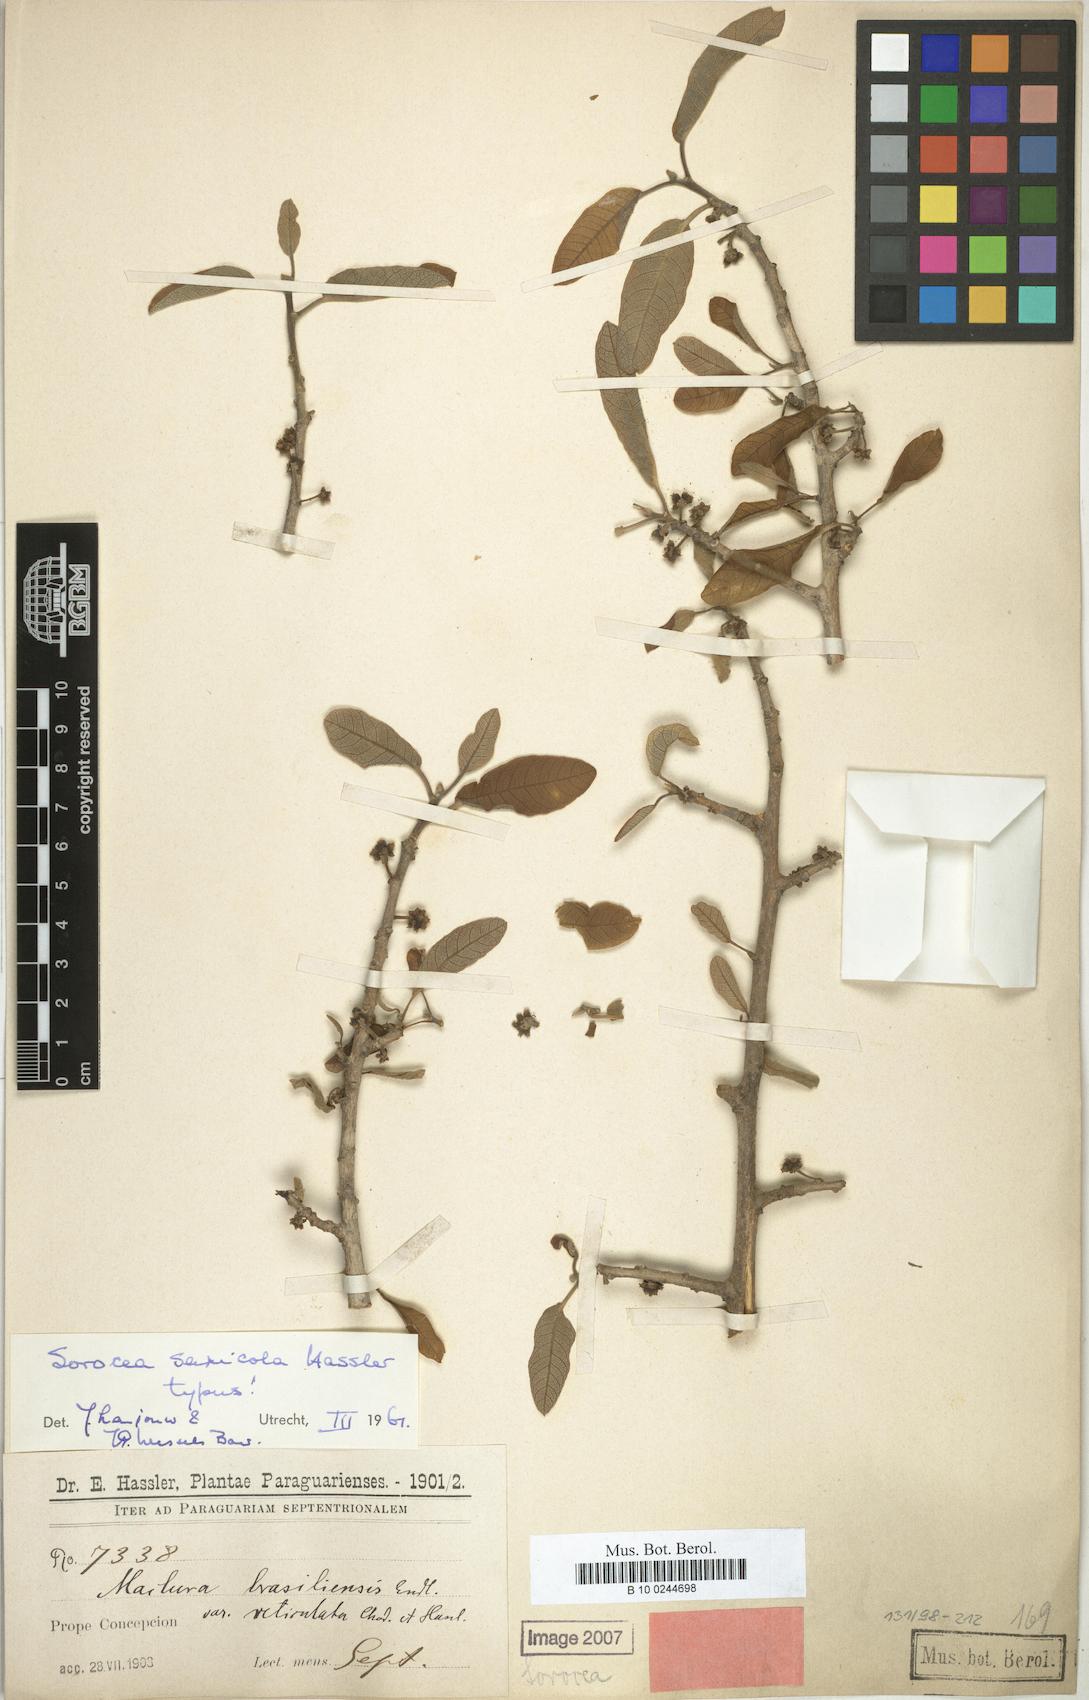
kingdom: Plantae
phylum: Tracheophyta
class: Magnoliopsida
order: Rosales
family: Moraceae
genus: Sorocea
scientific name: Sorocea sprucei
